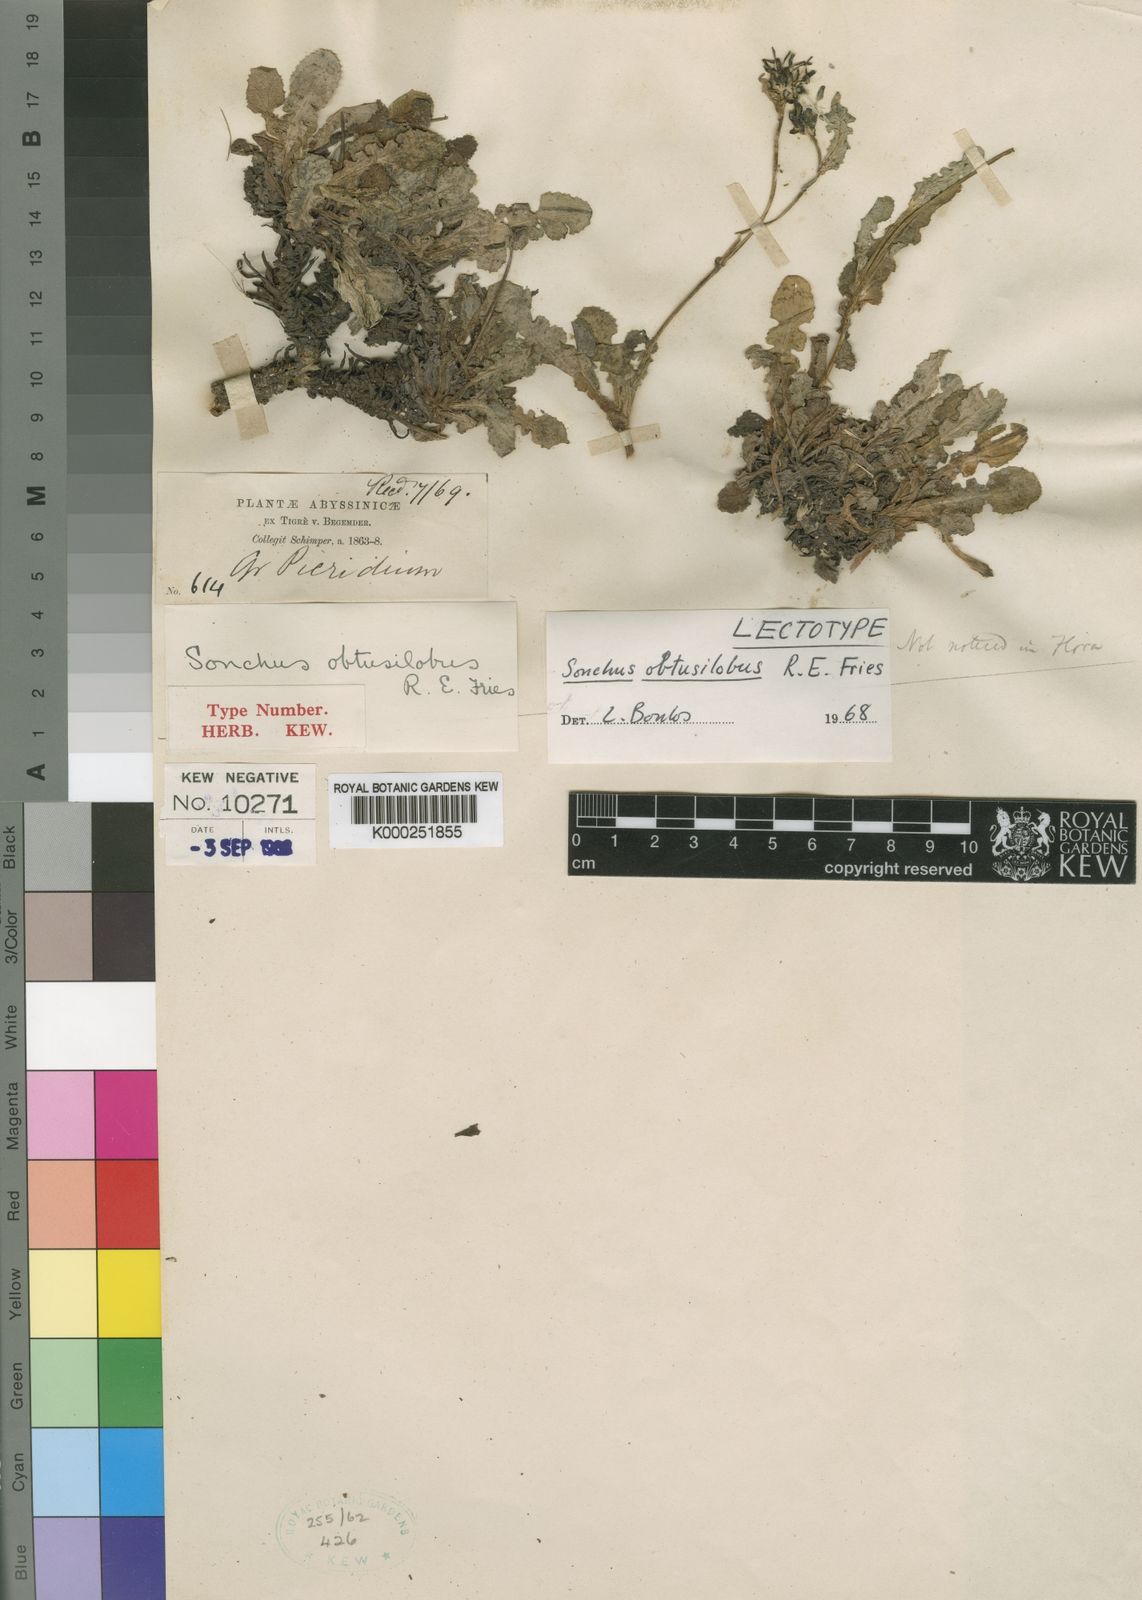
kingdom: Plantae
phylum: Tracheophyta
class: Magnoliopsida
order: Asterales
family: Asteraceae
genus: Sonchus
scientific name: Sonchus obtusilobus
